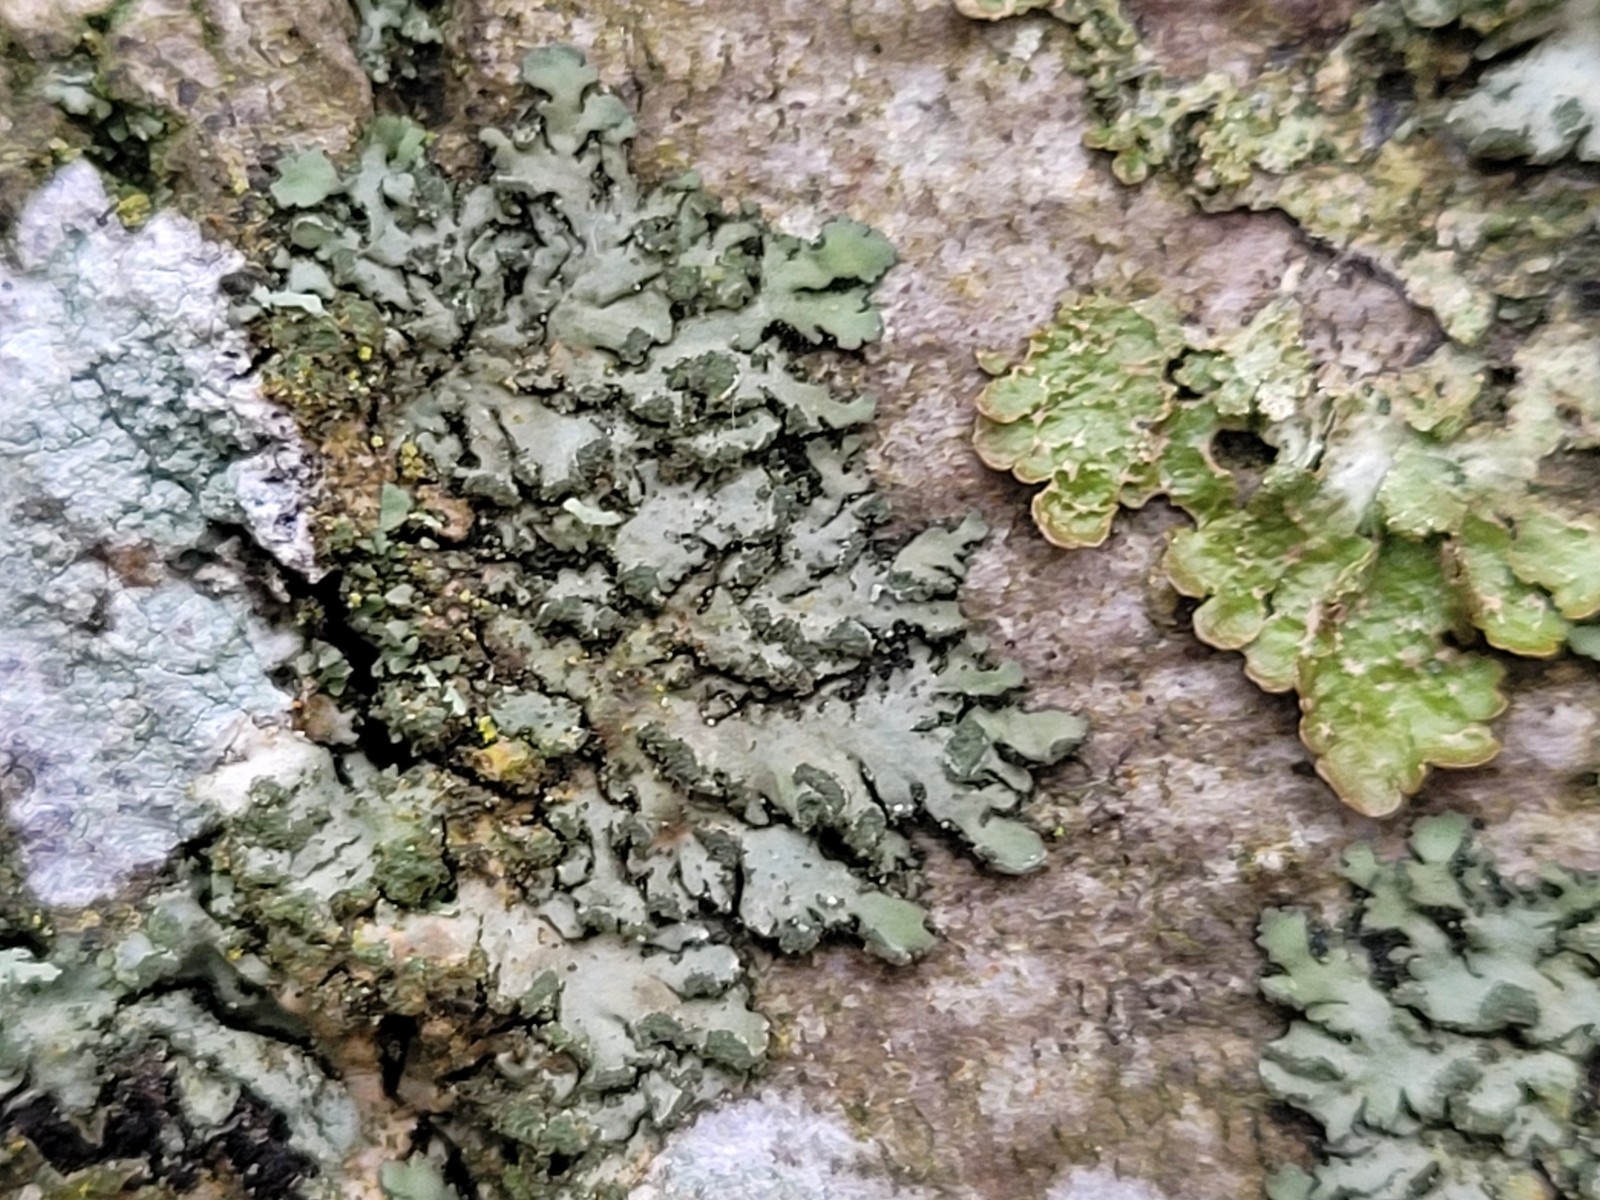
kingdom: Fungi
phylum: Ascomycota
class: Lecanoromycetes
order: Caliciales
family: Physciaceae
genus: Phaeophyscia
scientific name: Phaeophyscia orbicularis
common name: grågrøn rosetlav
